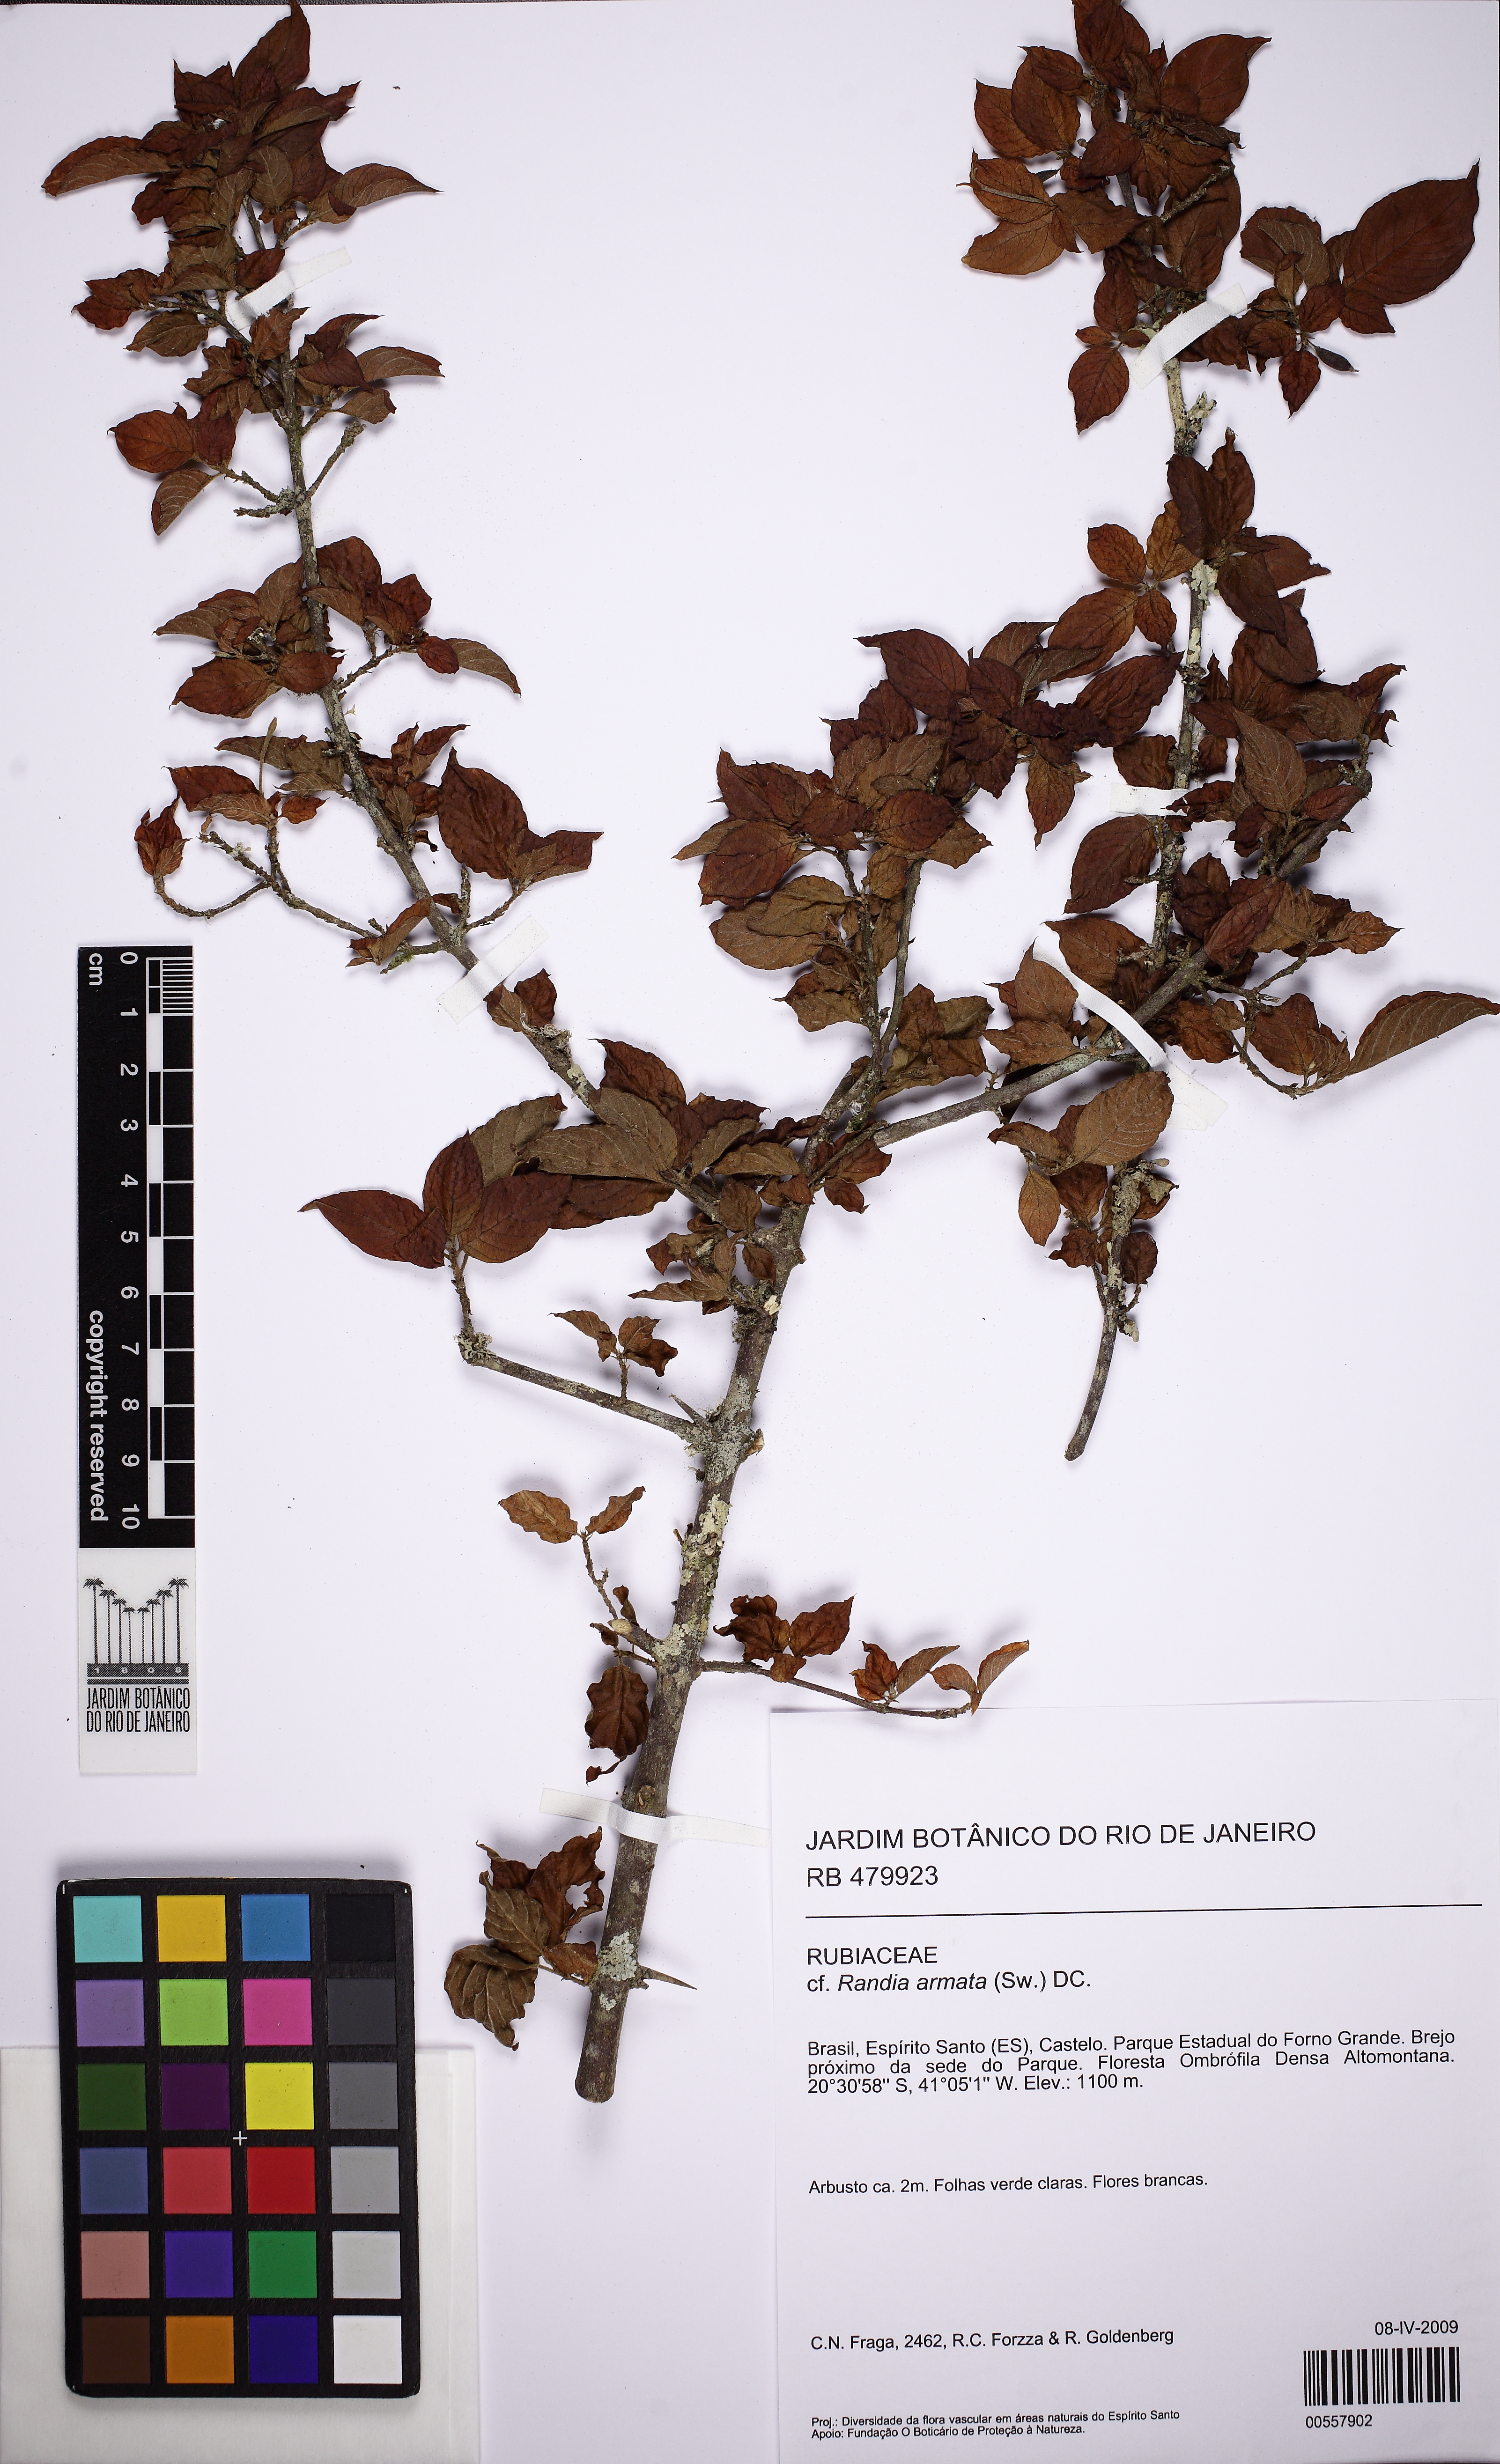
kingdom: Plantae
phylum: Tracheophyta
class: Magnoliopsida
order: Gentianales
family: Rubiaceae
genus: Chomelia
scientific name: Chomelia
